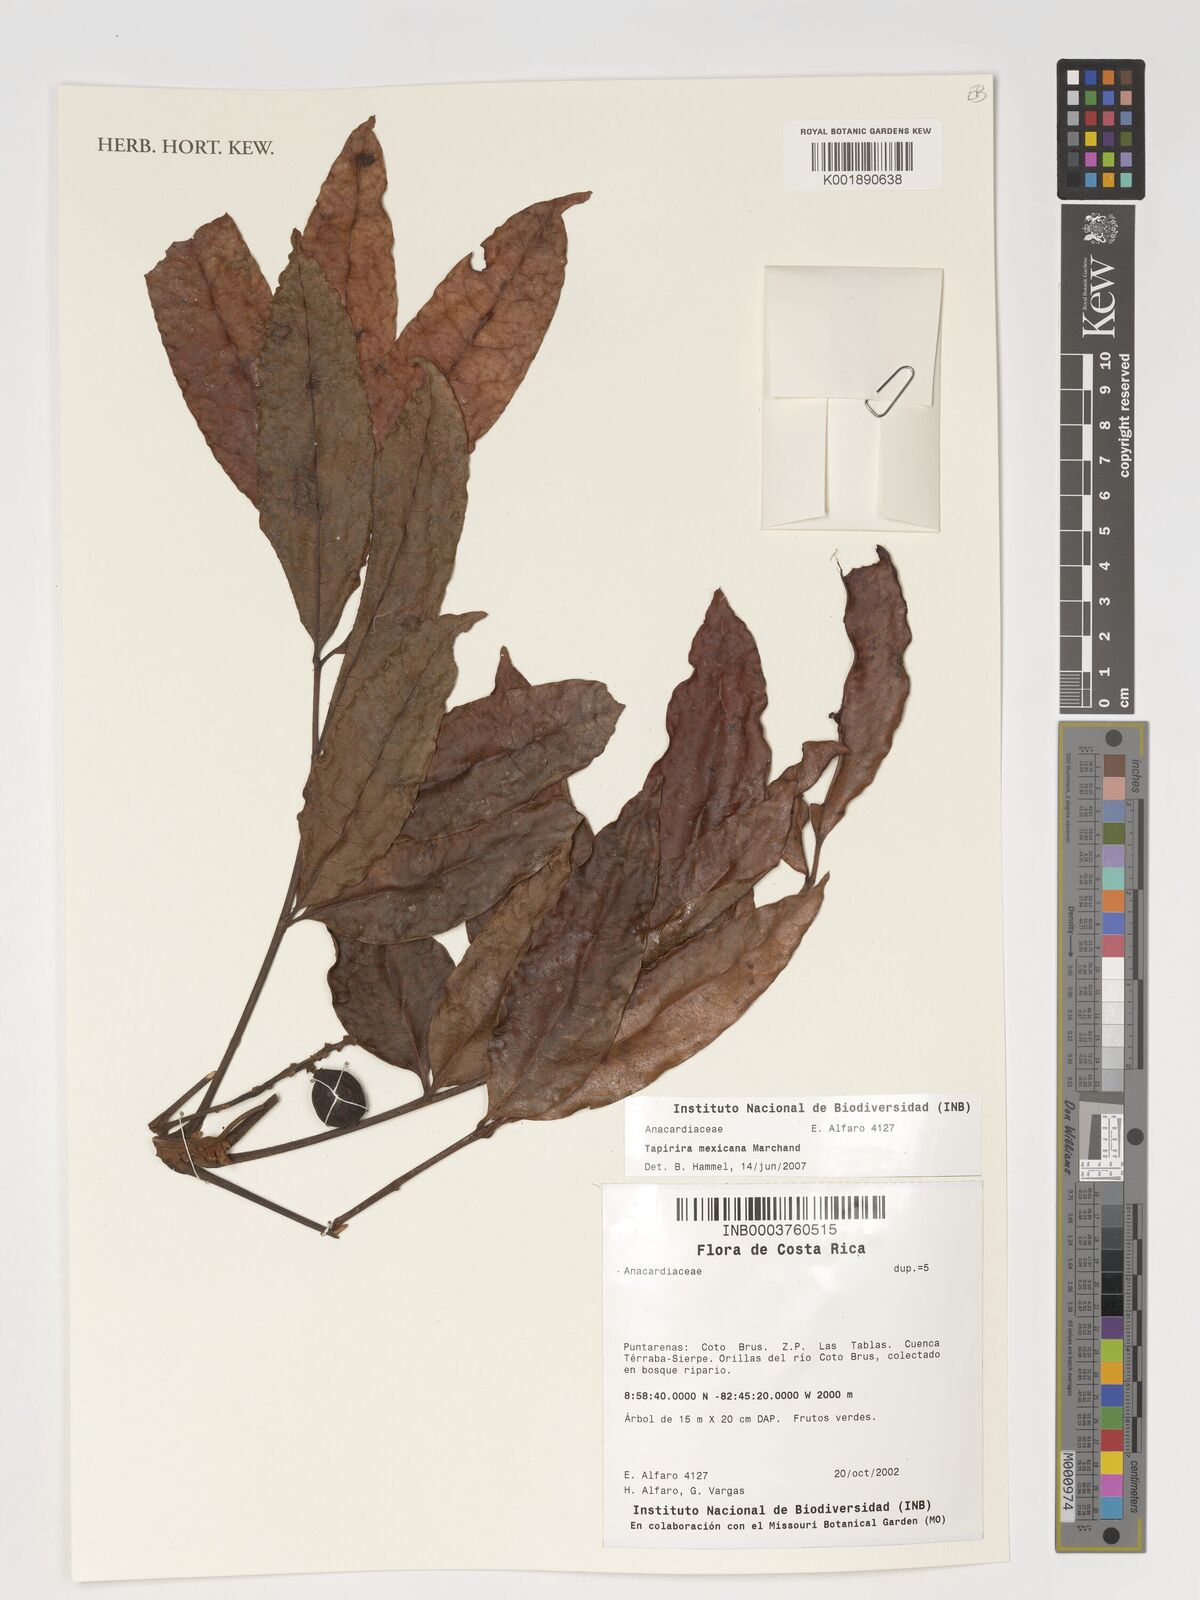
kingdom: Plantae
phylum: Tracheophyta
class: Magnoliopsida
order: Sapindales
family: Anacardiaceae
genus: Tapirira
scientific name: Tapirira mexicana
